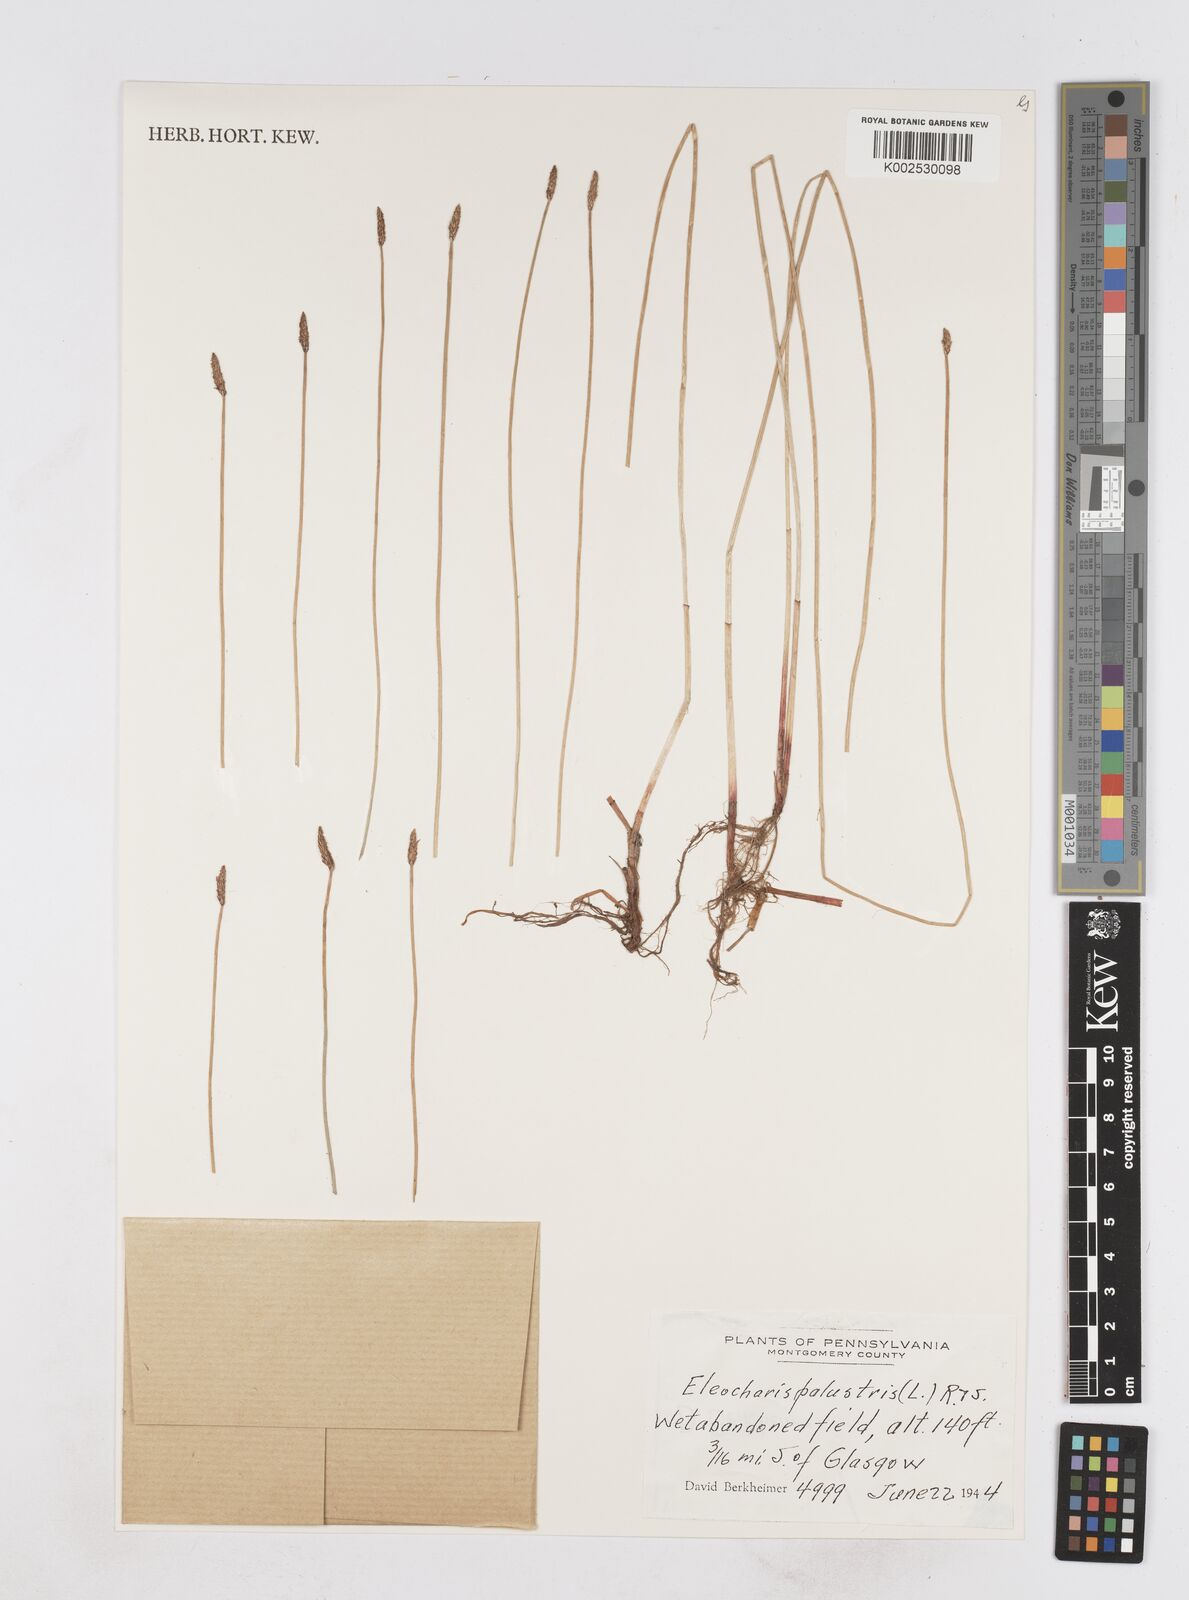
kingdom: Plantae
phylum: Tracheophyta
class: Liliopsida
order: Poales
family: Cyperaceae
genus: Eleocharis
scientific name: Eleocharis palustris
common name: Common spike-rush
